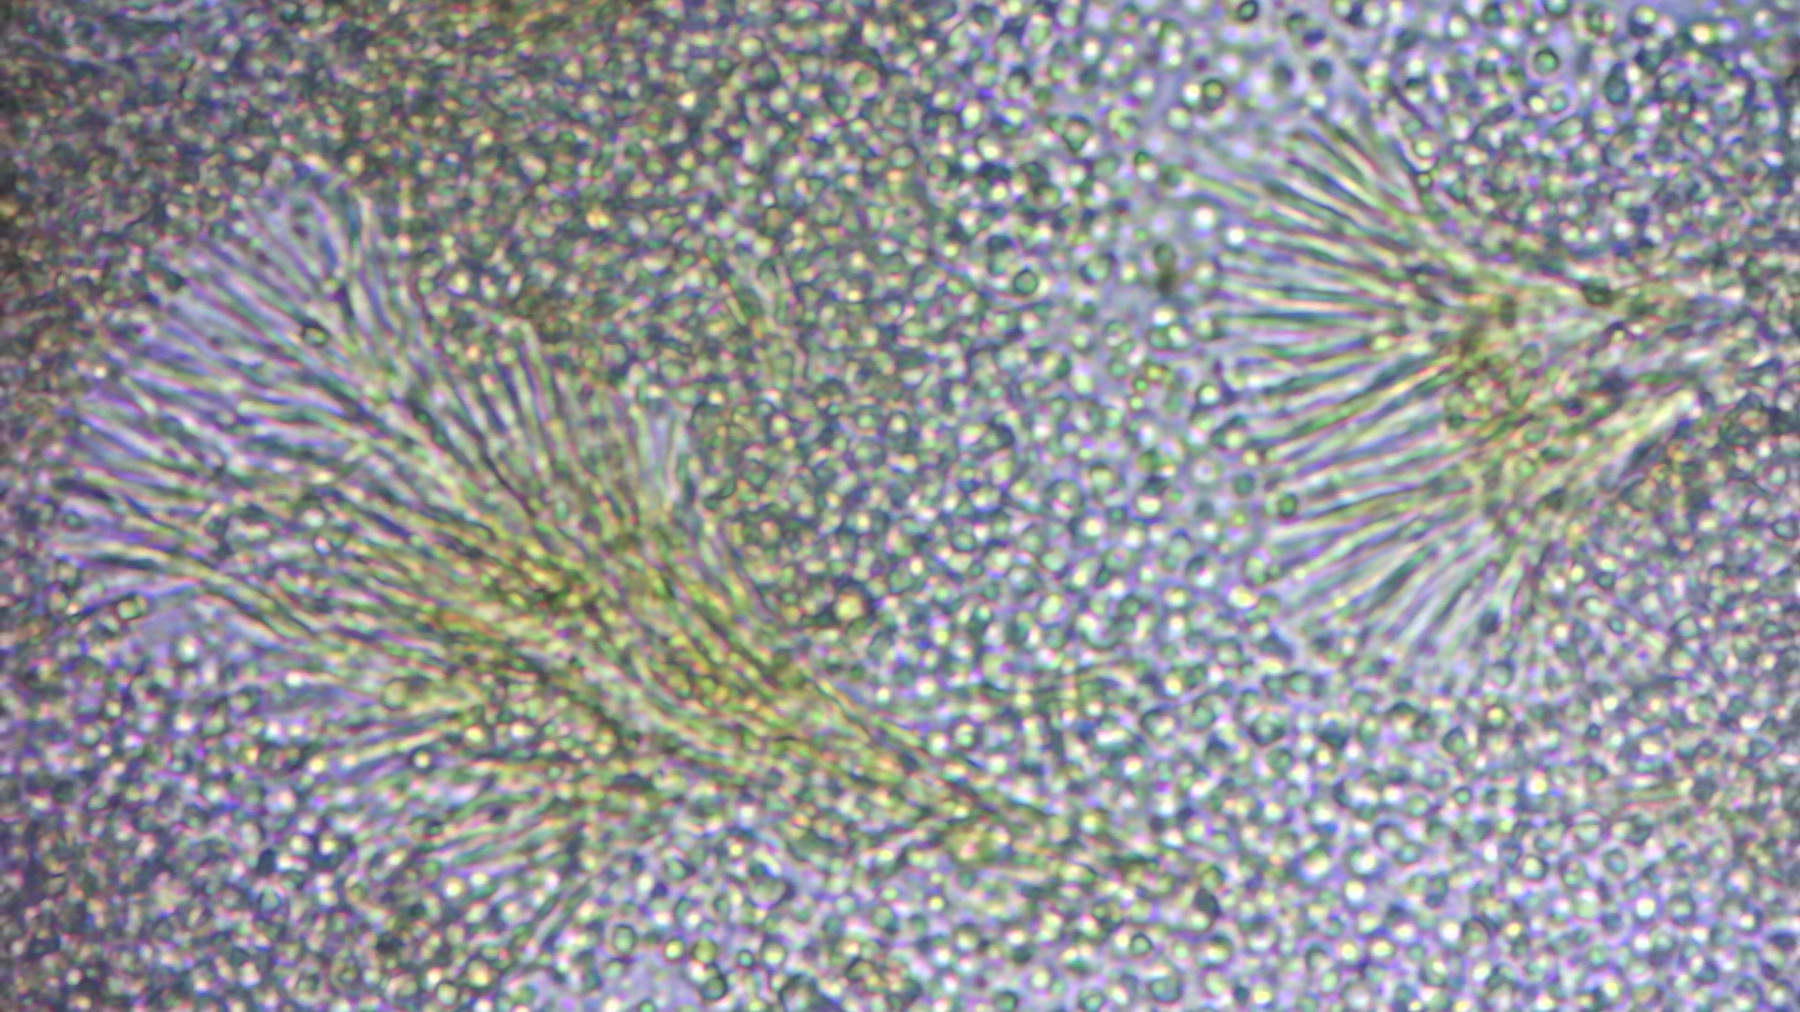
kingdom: Fungi
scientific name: Fungi
